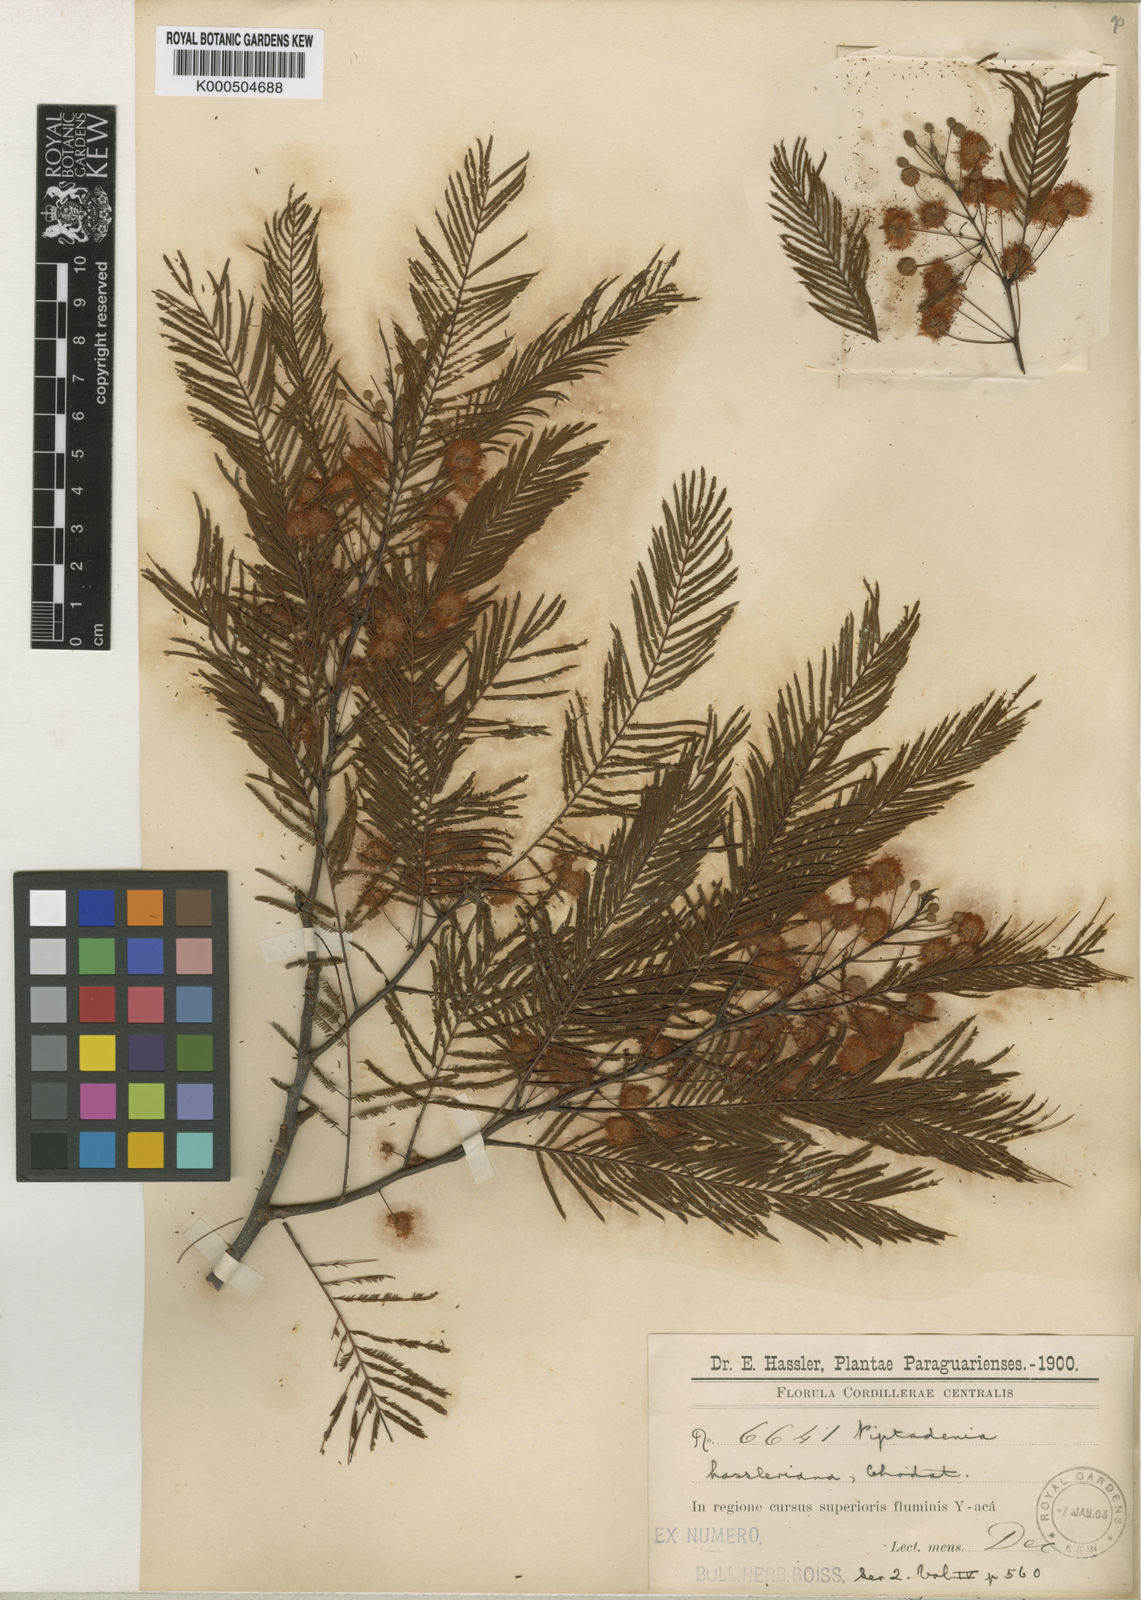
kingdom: Plantae
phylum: Tracheophyta
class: Magnoliopsida
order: Fabales
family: Fabaceae
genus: Anadenanthera
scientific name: Anadenanthera
